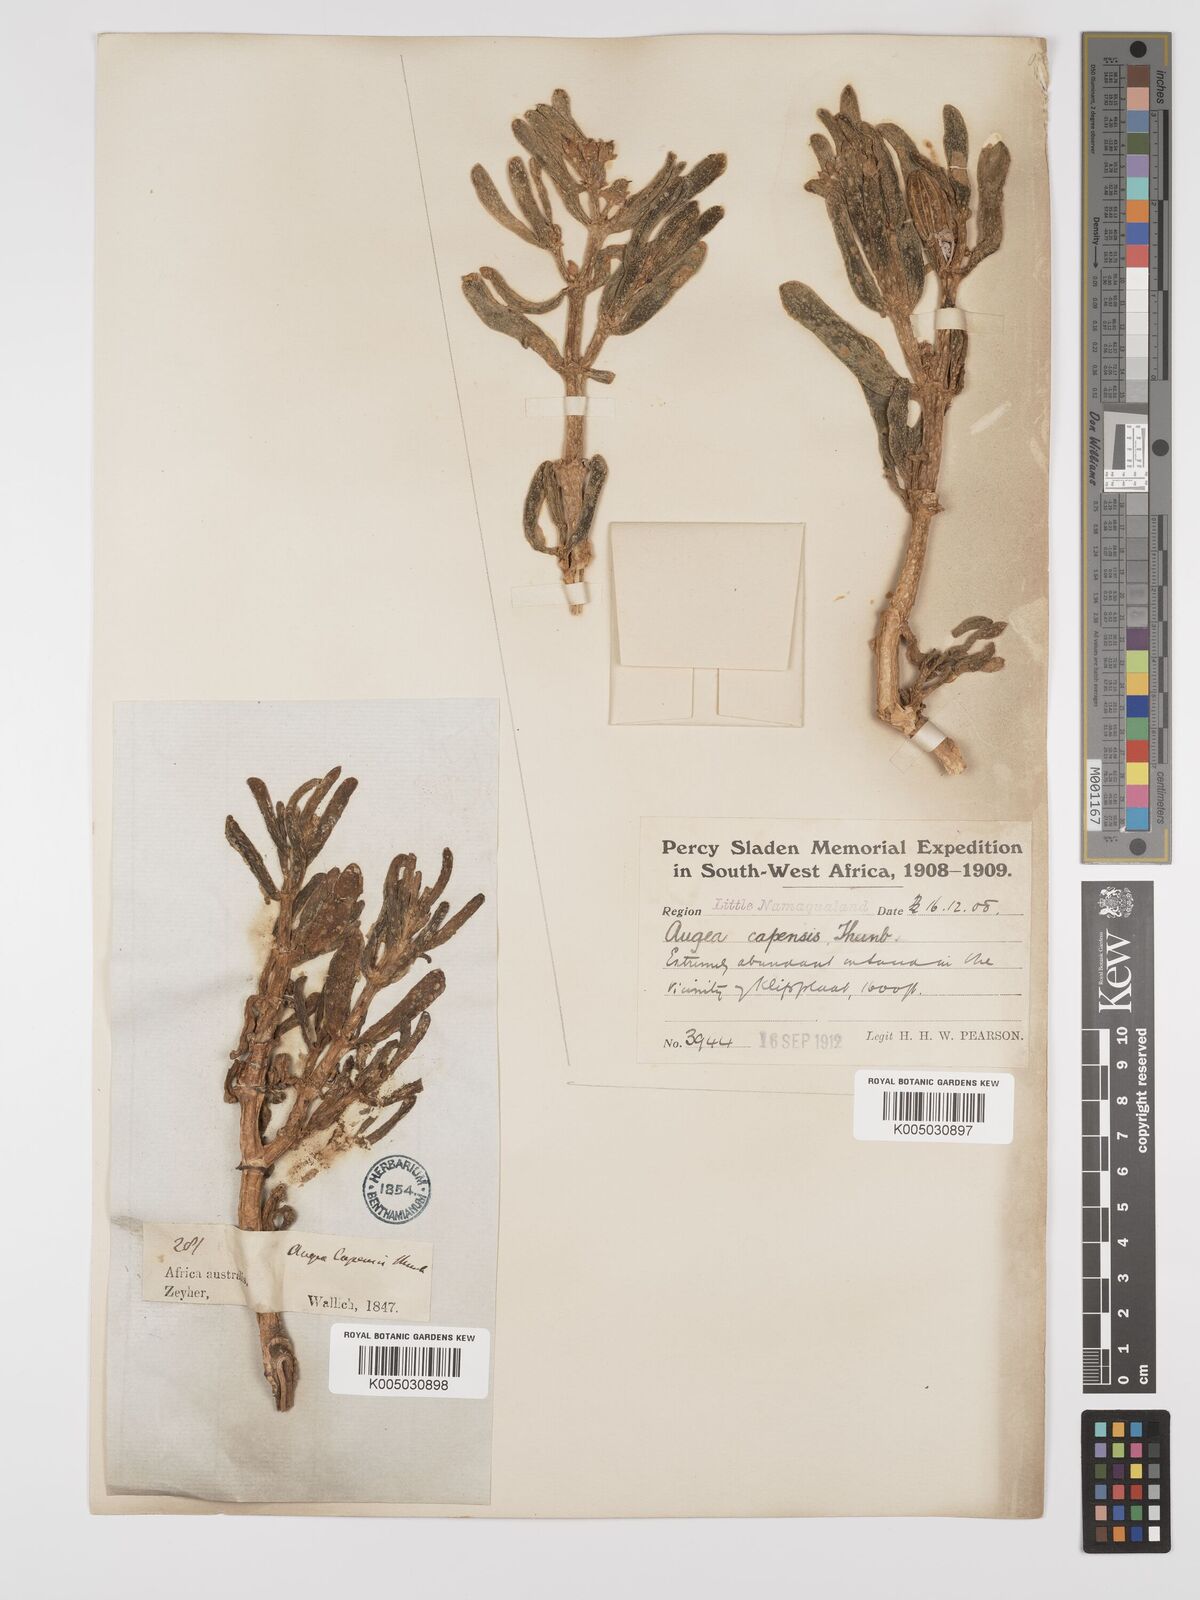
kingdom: Plantae
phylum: Tracheophyta
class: Magnoliopsida
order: Zygophyllales
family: Zygophyllaceae
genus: Augea
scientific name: Augea capensis
